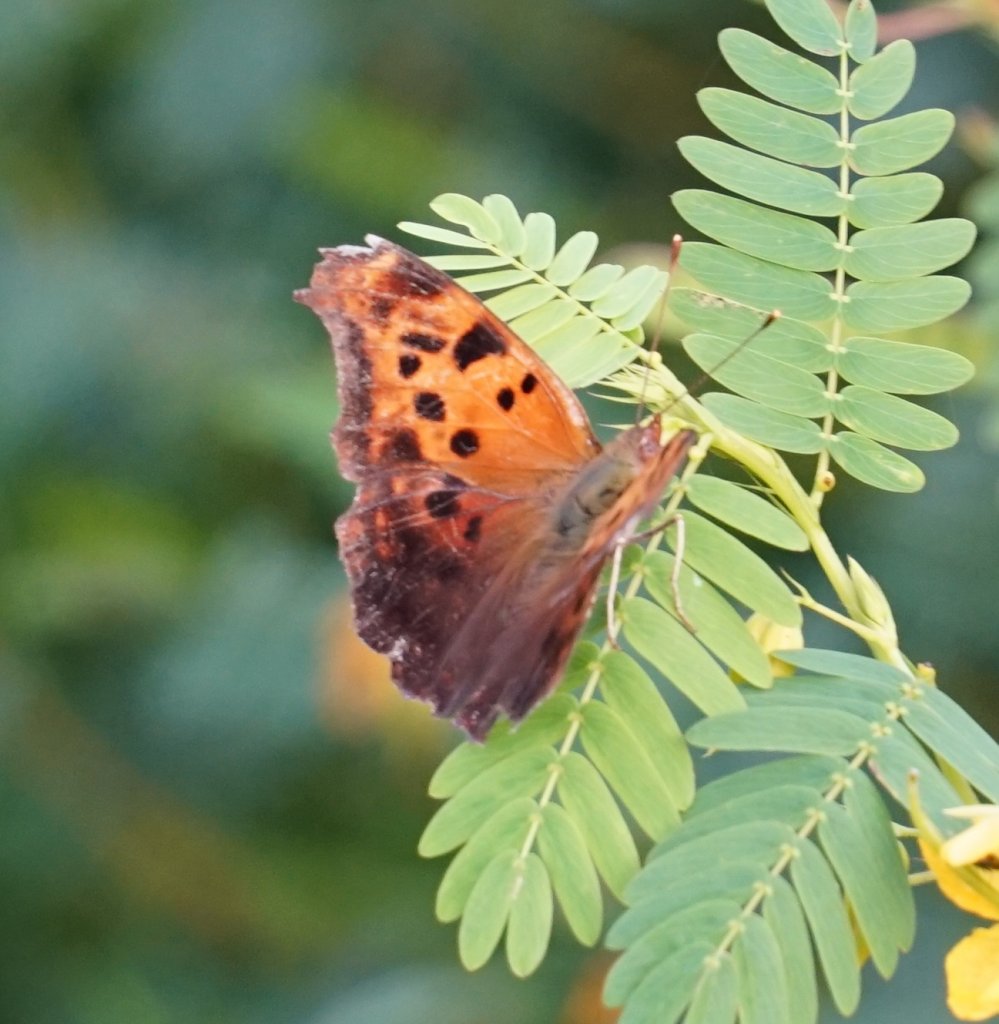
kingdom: Animalia
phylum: Arthropoda
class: Insecta
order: Lepidoptera
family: Nymphalidae
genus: Polygonia
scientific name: Polygonia interrogationis
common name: Question Mark
